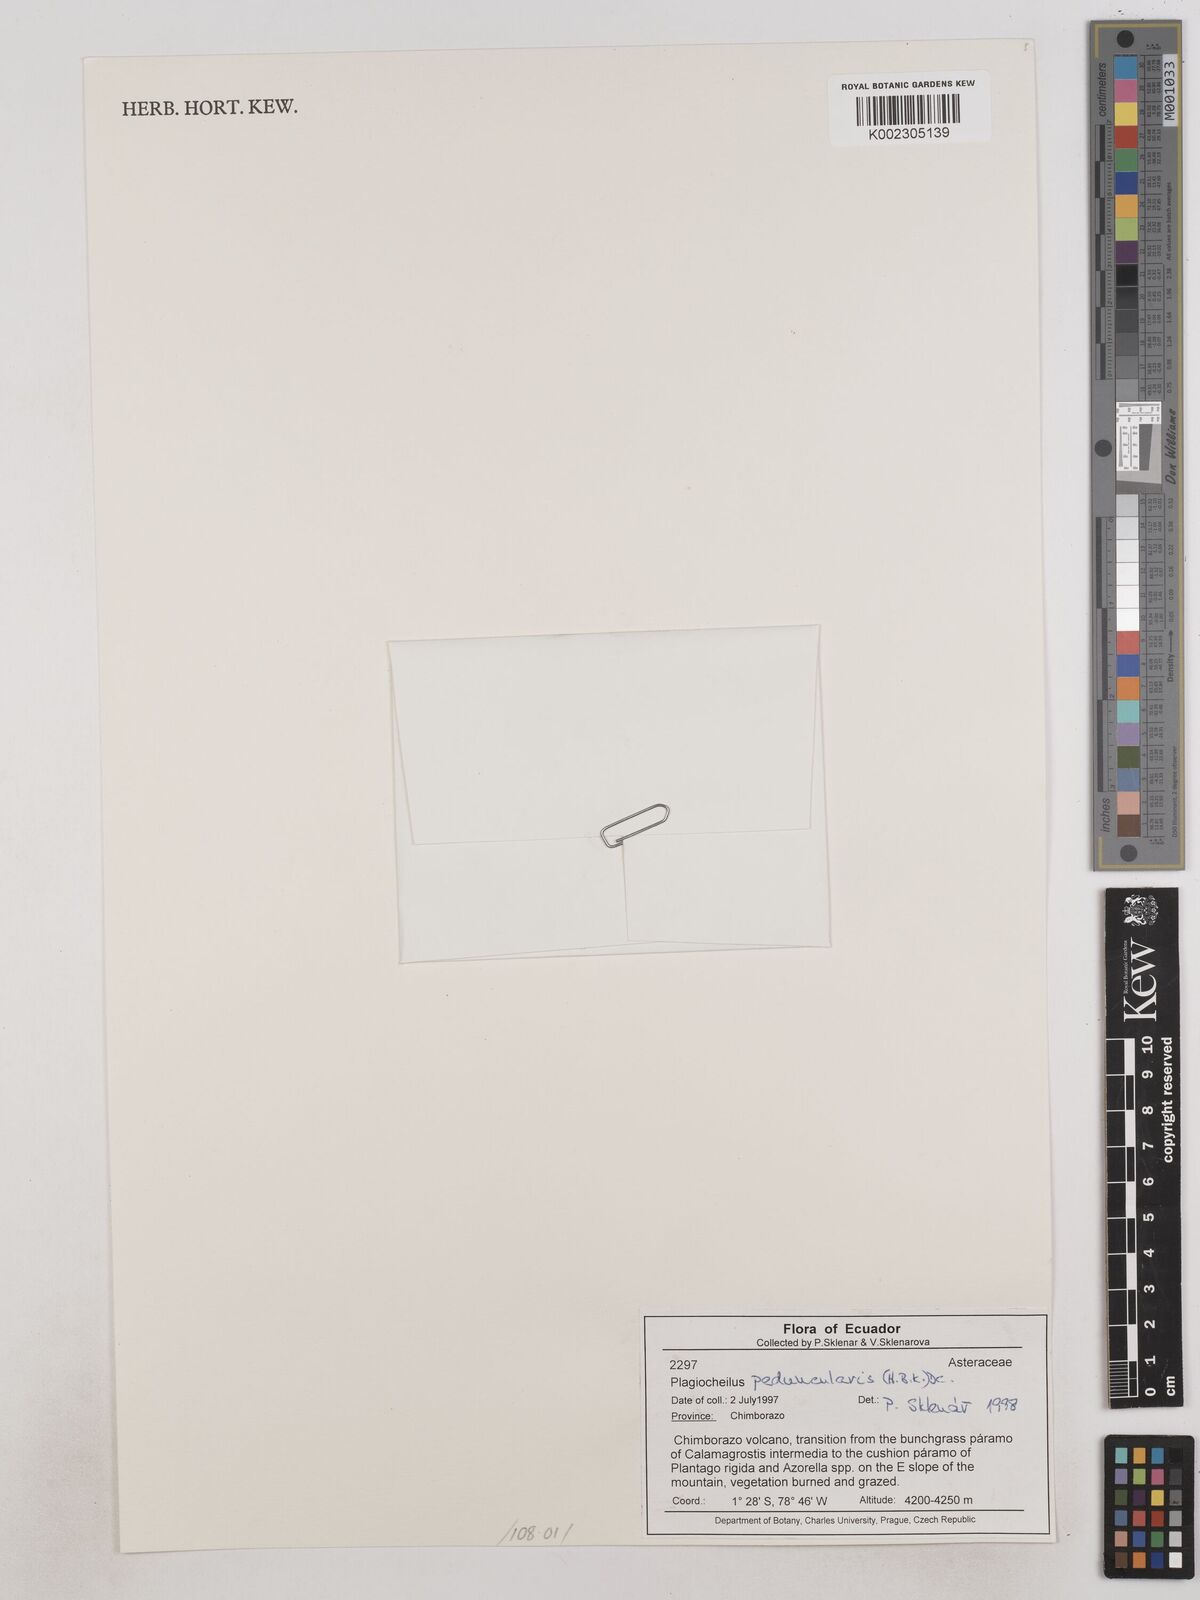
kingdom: Plantae
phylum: Tracheophyta
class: Magnoliopsida
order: Asterales
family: Asteraceae
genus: Plagiocheilus
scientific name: Plagiocheilus peduncularis
